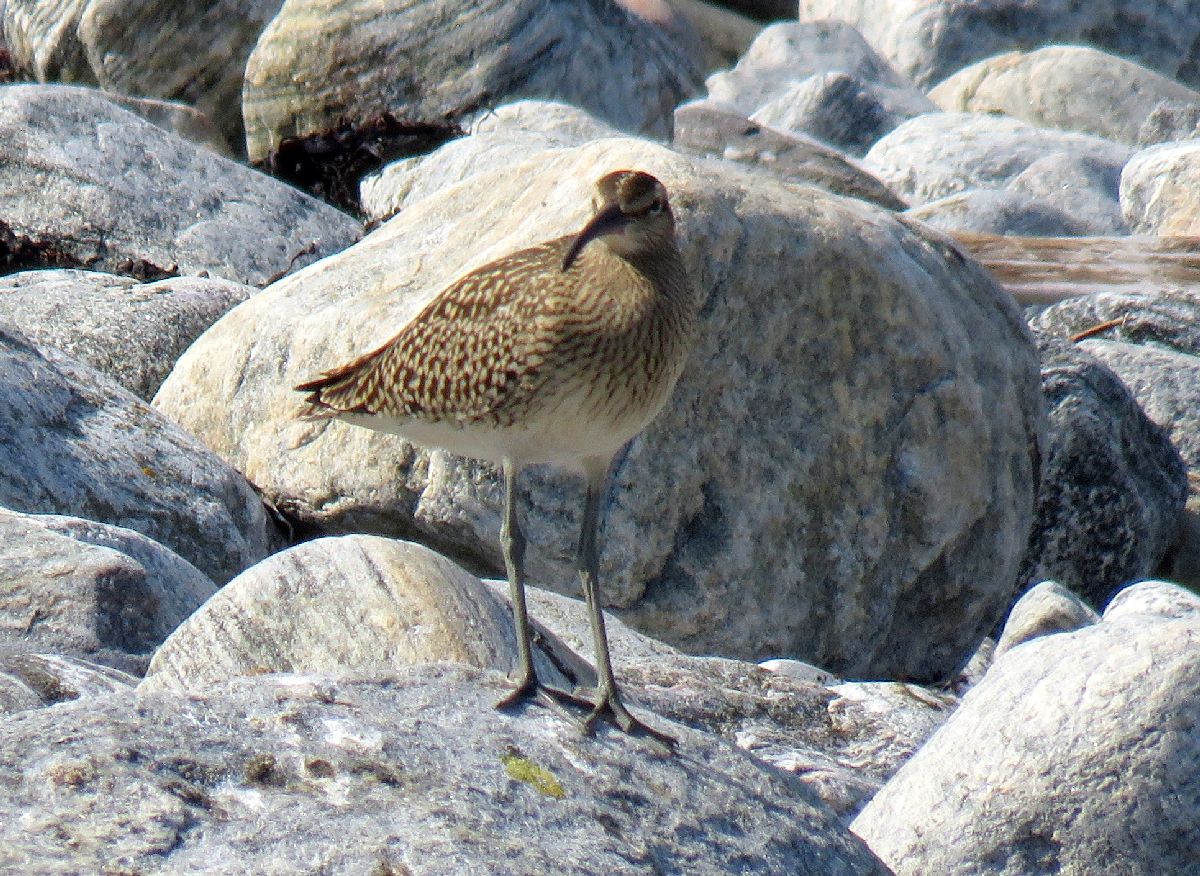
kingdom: Animalia
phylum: Chordata
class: Aves
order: Charadriiformes
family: Scolopacidae
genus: Numenius
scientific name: Numenius phaeopus
